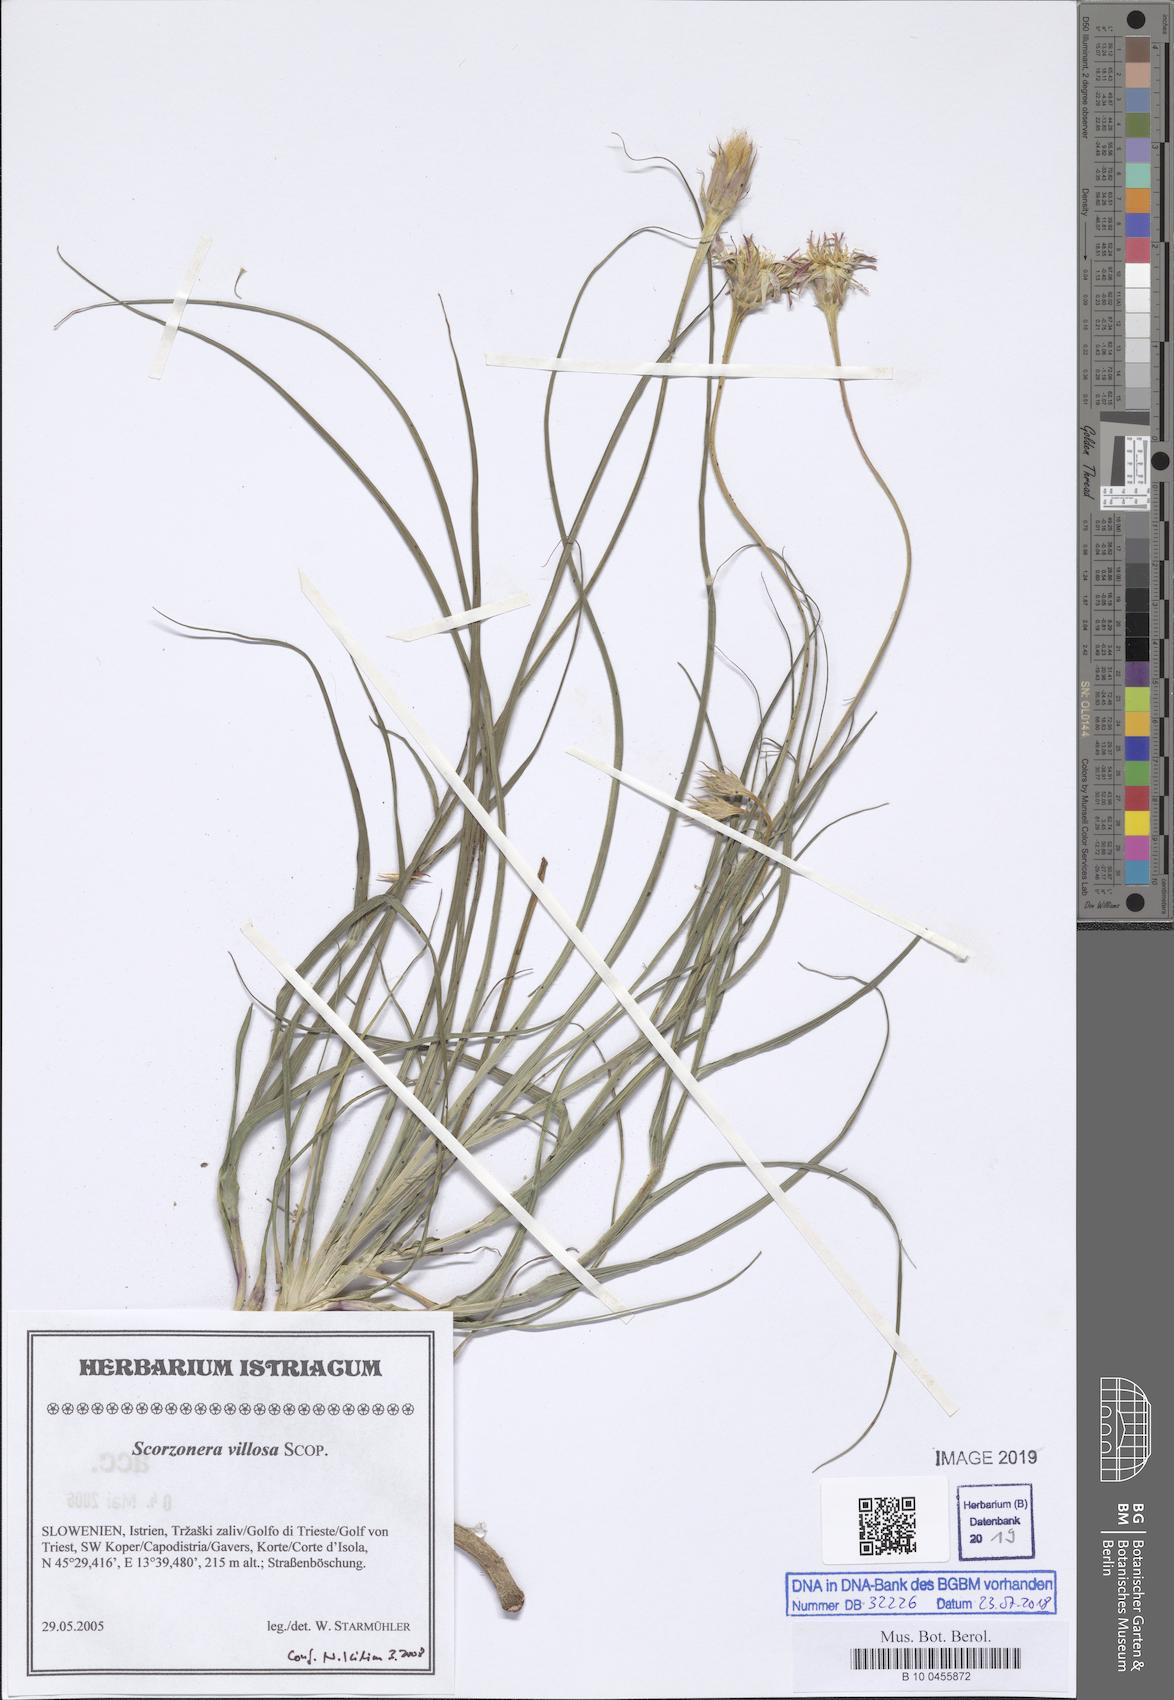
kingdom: Plantae
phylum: Tracheophyta
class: Magnoliopsida
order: Asterales
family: Asteraceae
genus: Gelasia
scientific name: Gelasia villosa
